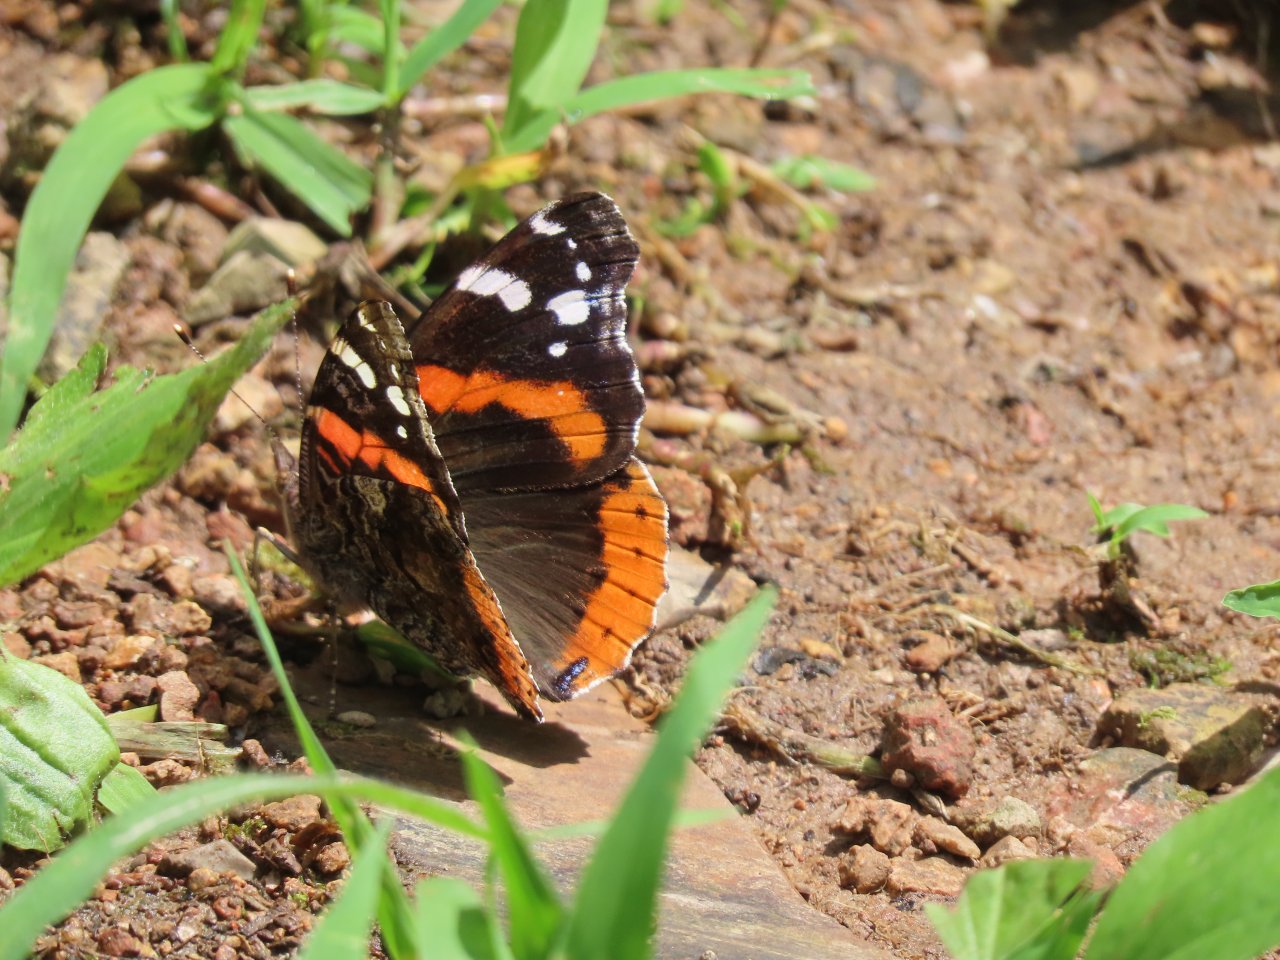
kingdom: Animalia
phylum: Arthropoda
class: Insecta
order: Lepidoptera
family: Nymphalidae
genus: Vanessa
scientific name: Vanessa atalanta
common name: Red Admiral
